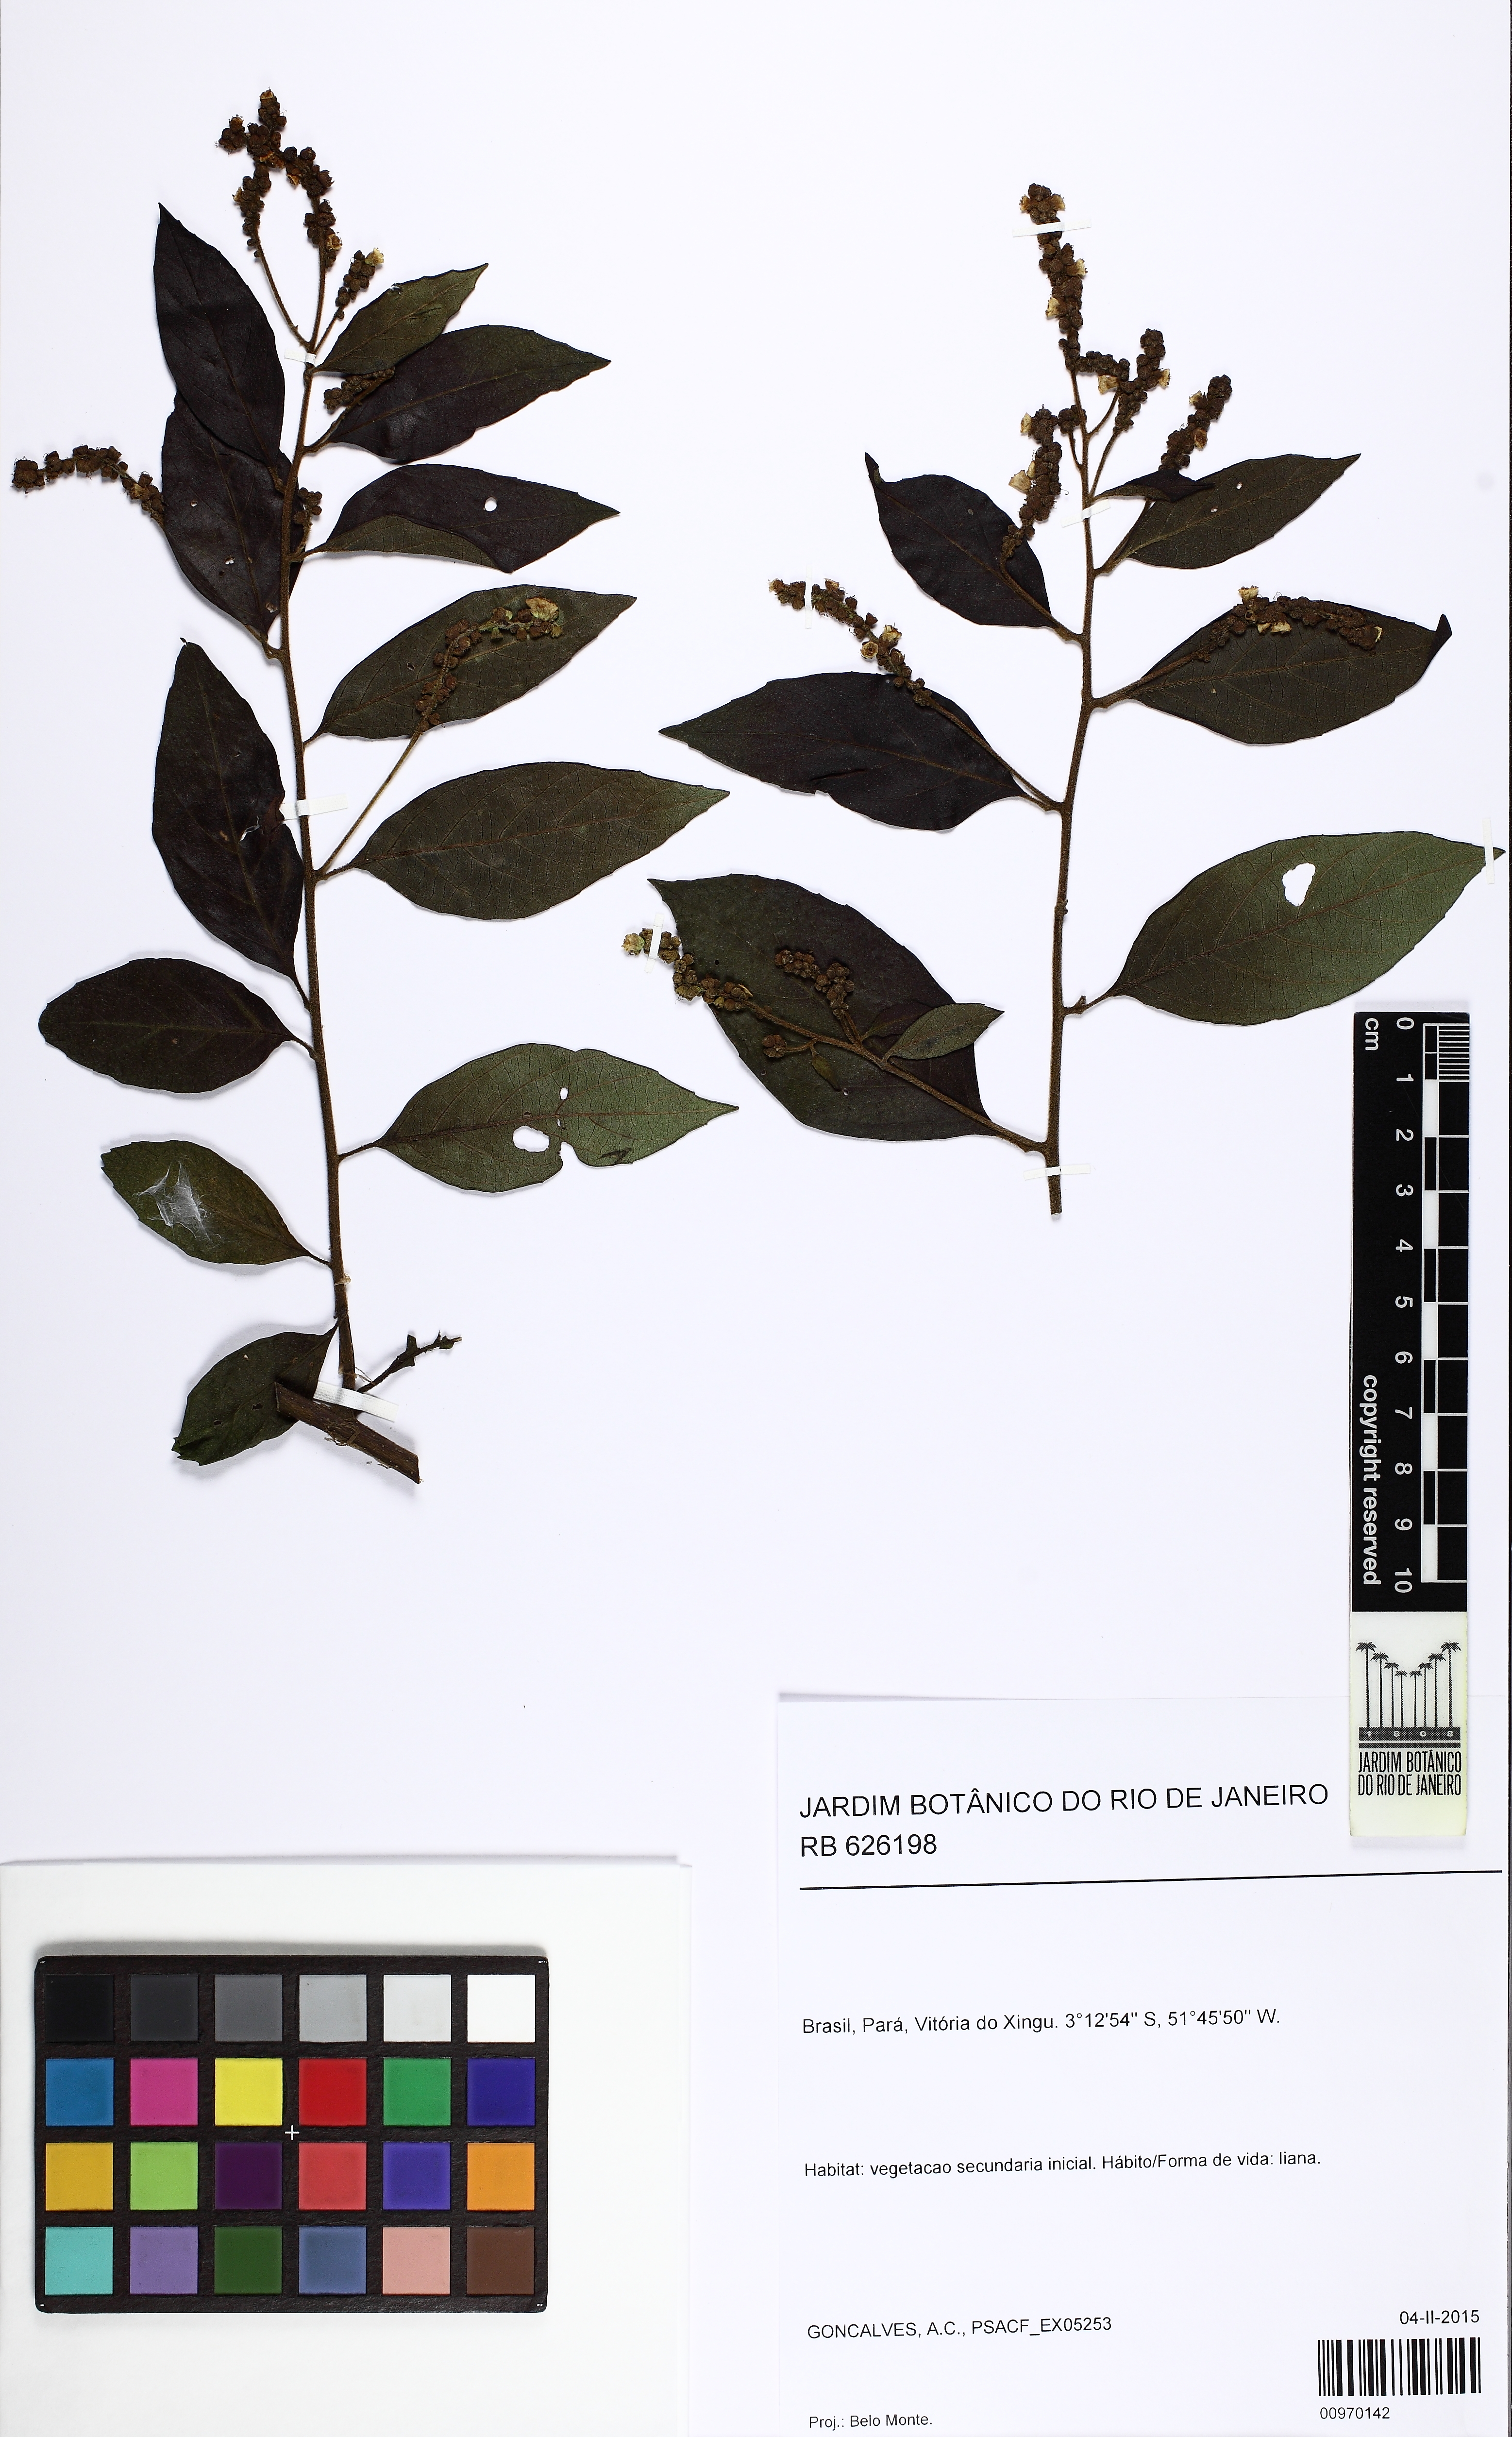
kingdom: Plantae
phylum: Tracheophyta
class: Magnoliopsida
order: Boraginales
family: Cordiaceae
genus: Cordia
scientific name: Cordia
